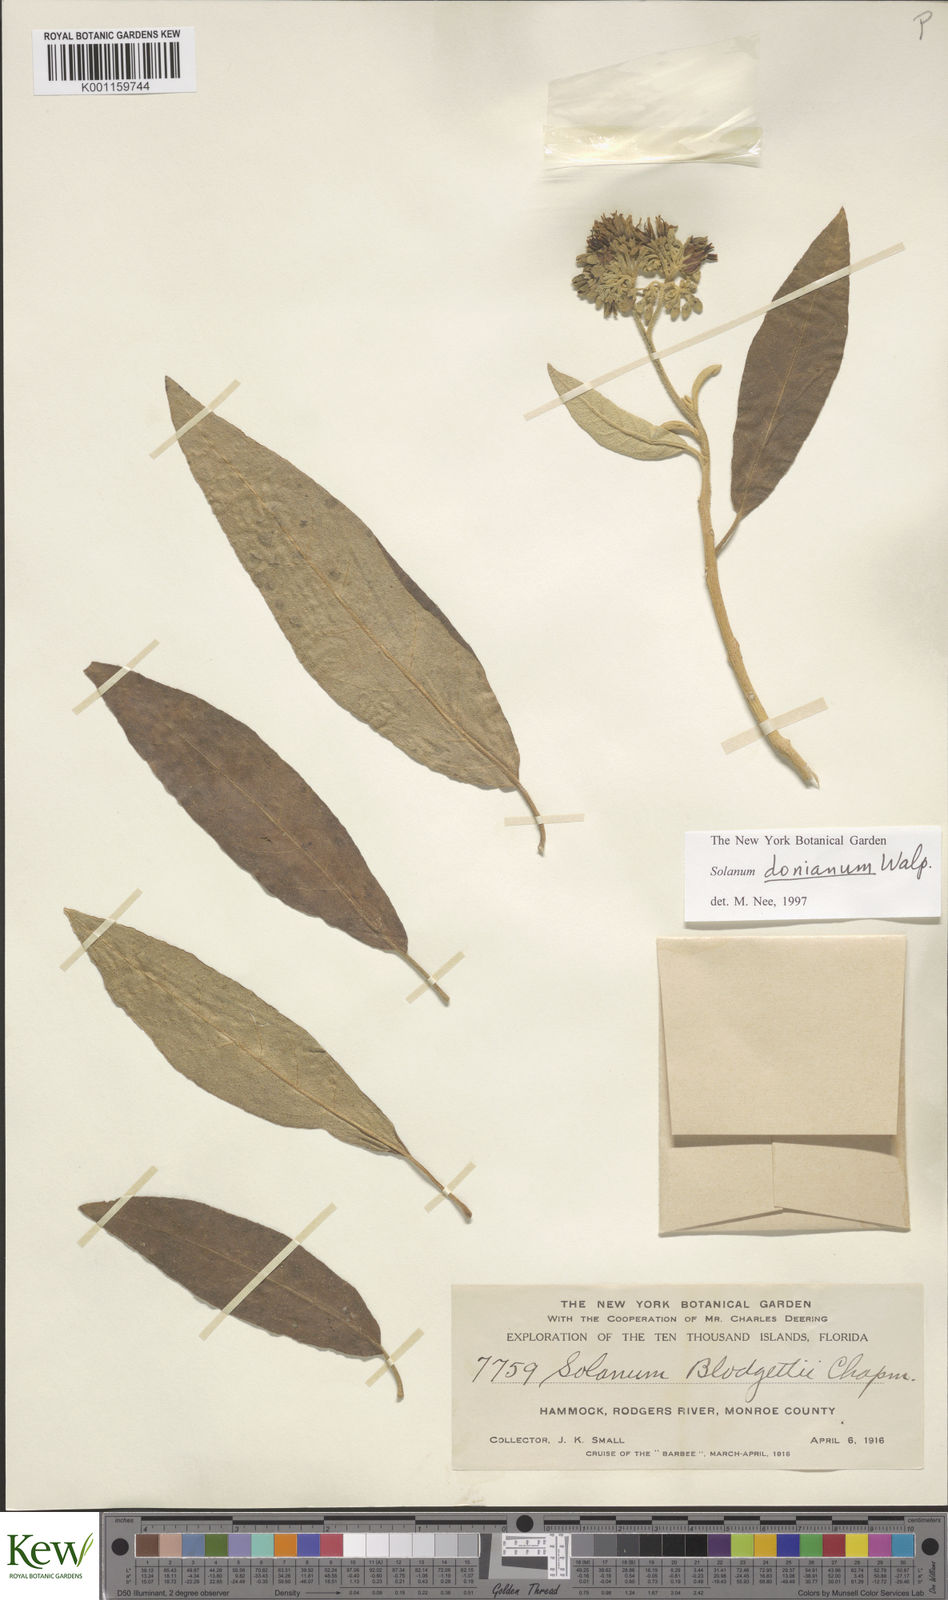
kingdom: Plantae
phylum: Tracheophyta
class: Magnoliopsida
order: Solanales
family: Solanaceae
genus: Solanum
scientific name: Solanum donianum
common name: Mullein nightshade
